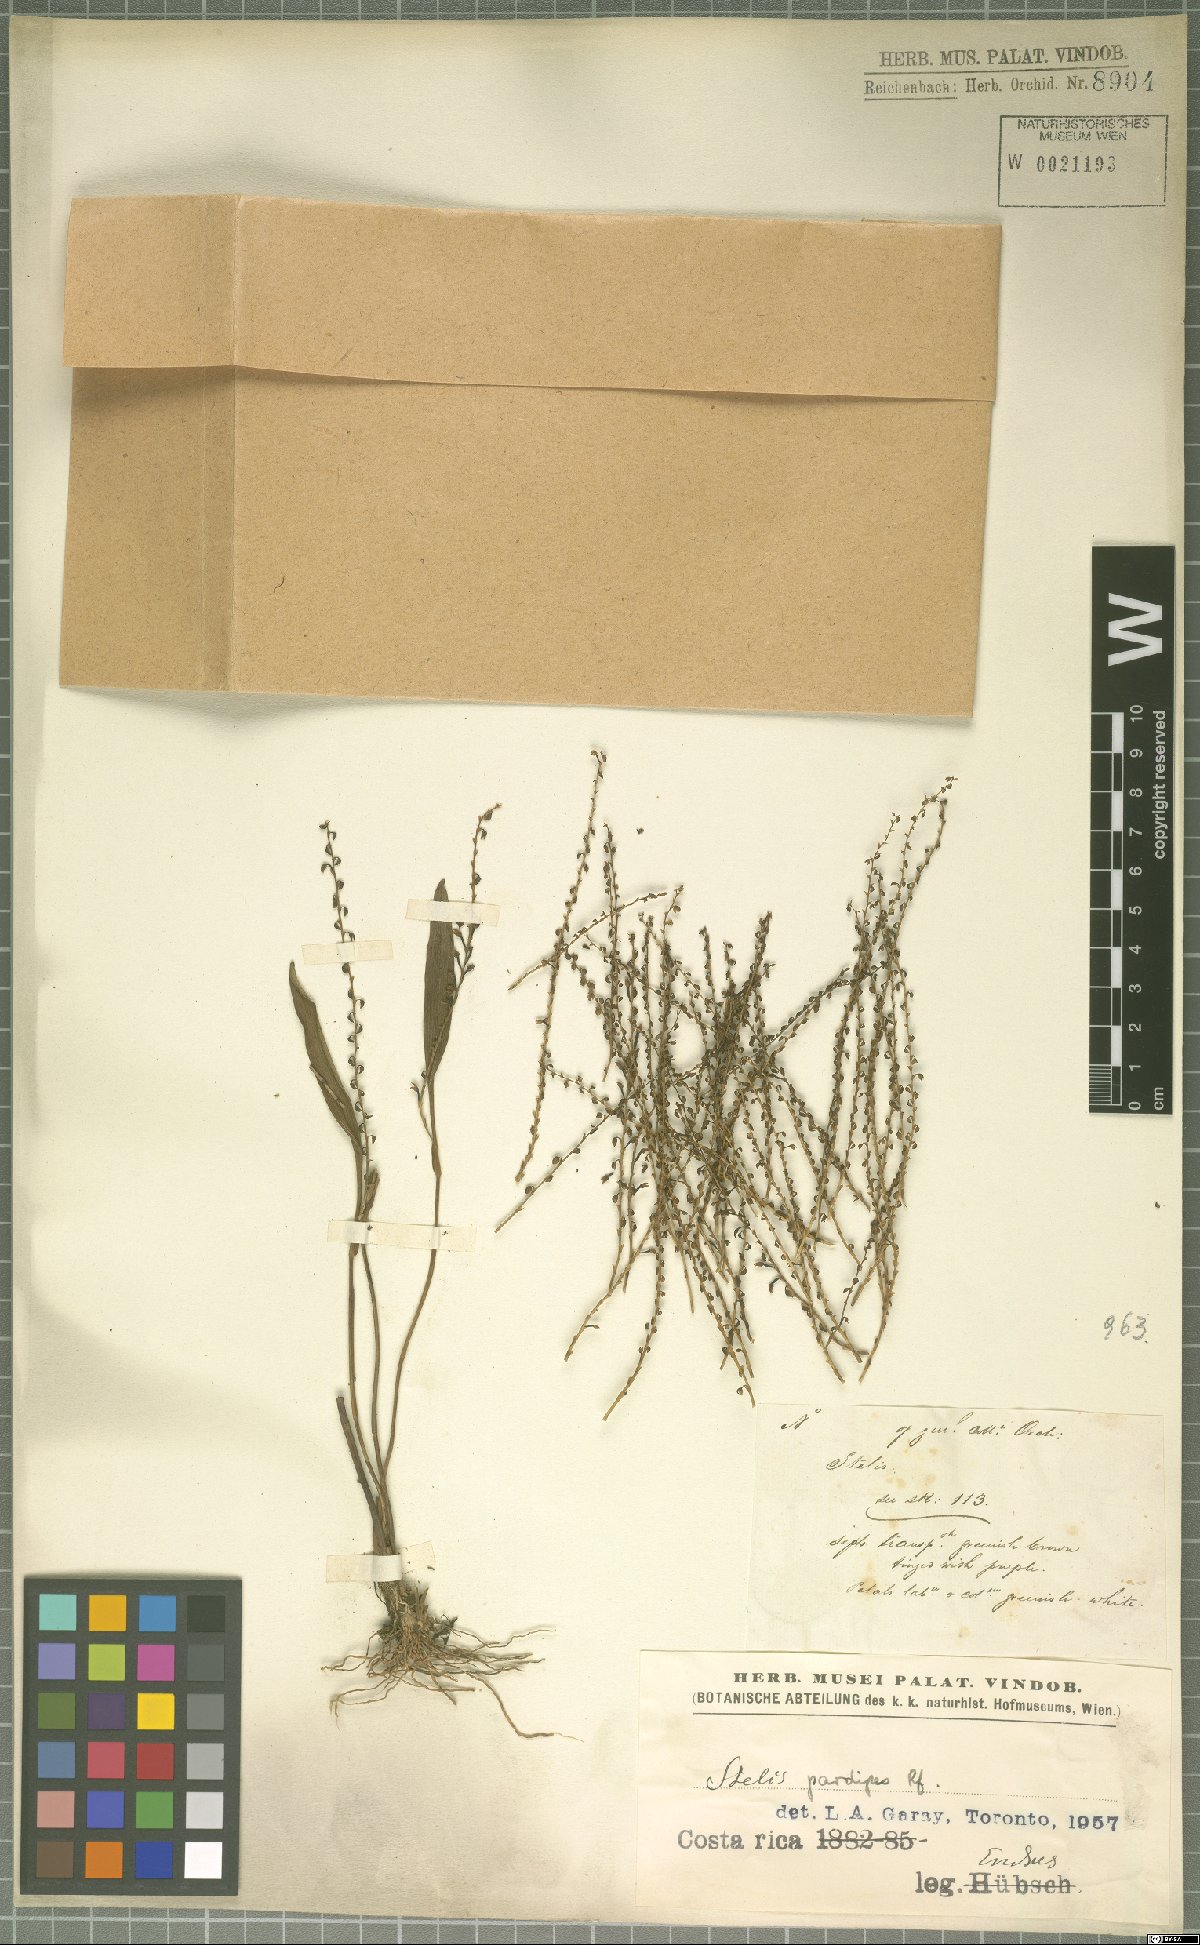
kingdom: Plantae
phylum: Tracheophyta
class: Liliopsida
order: Asparagales
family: Orchidaceae
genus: Stelis
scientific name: Stelis pardipes
